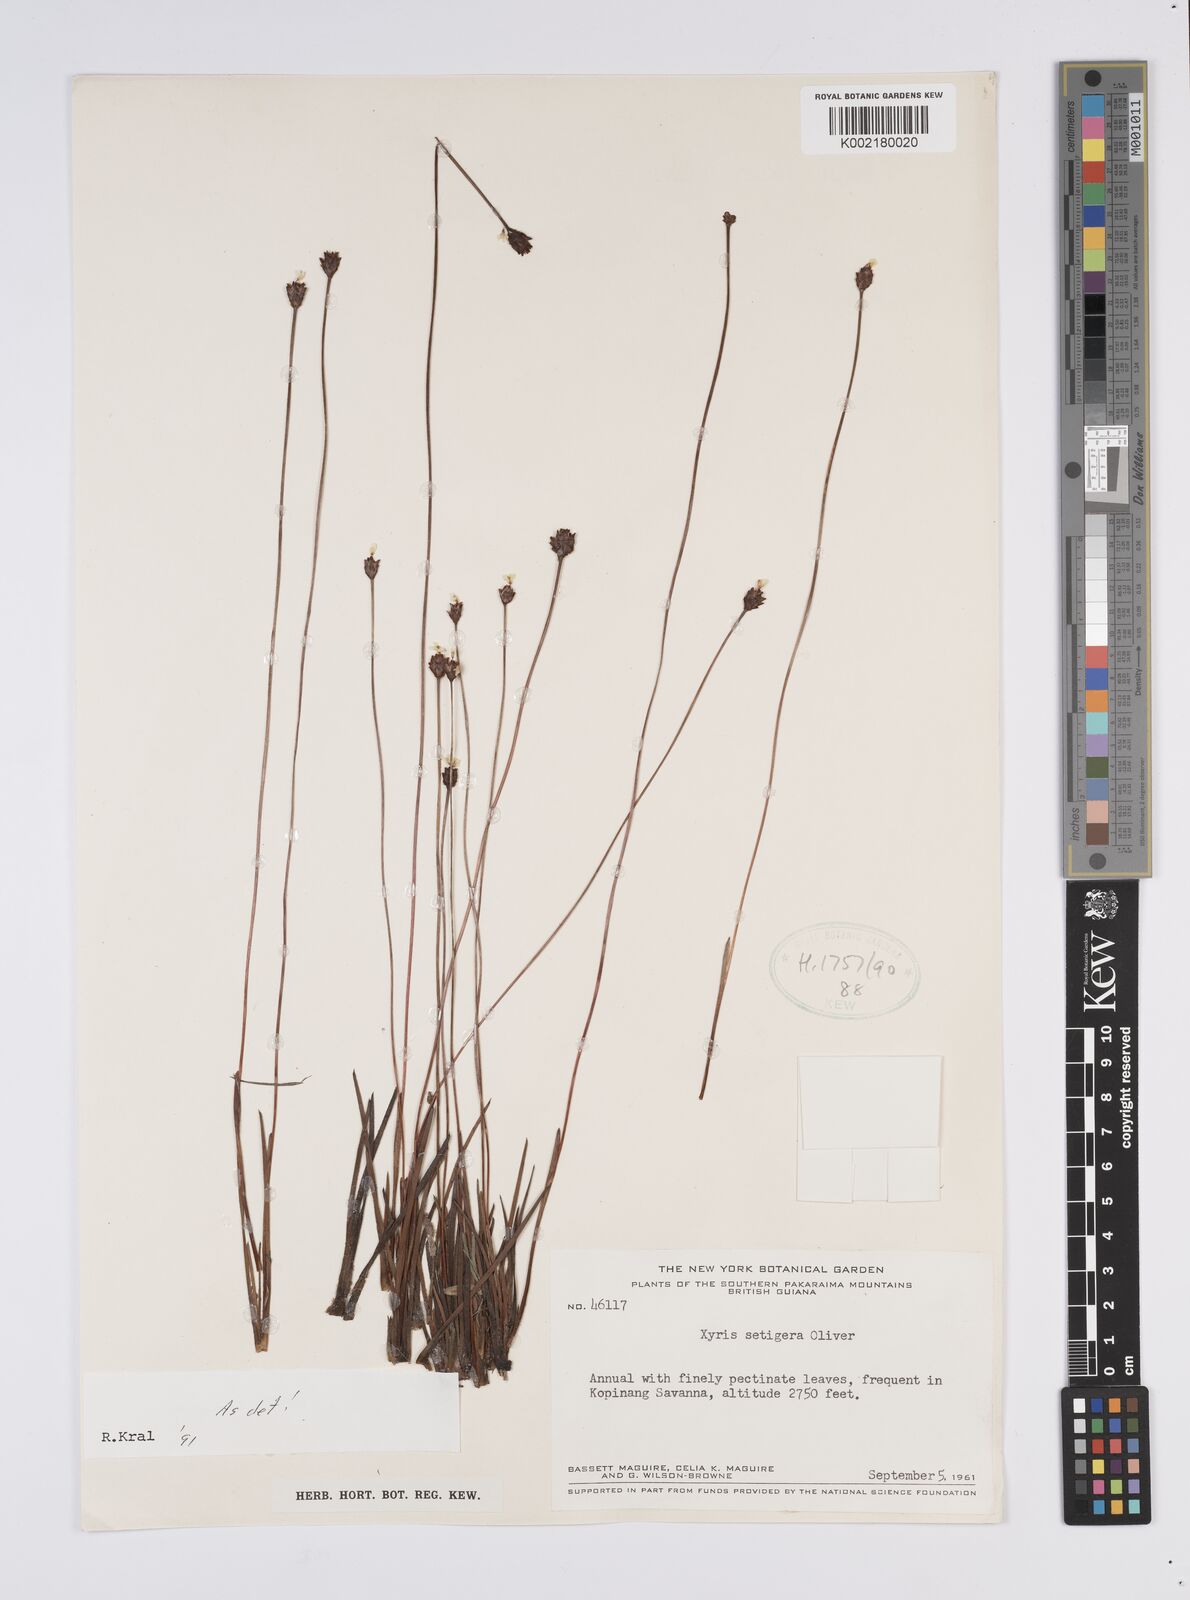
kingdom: Plantae
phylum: Tracheophyta
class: Liliopsida
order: Poales
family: Xyridaceae
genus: Xyris
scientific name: Xyris setigera
